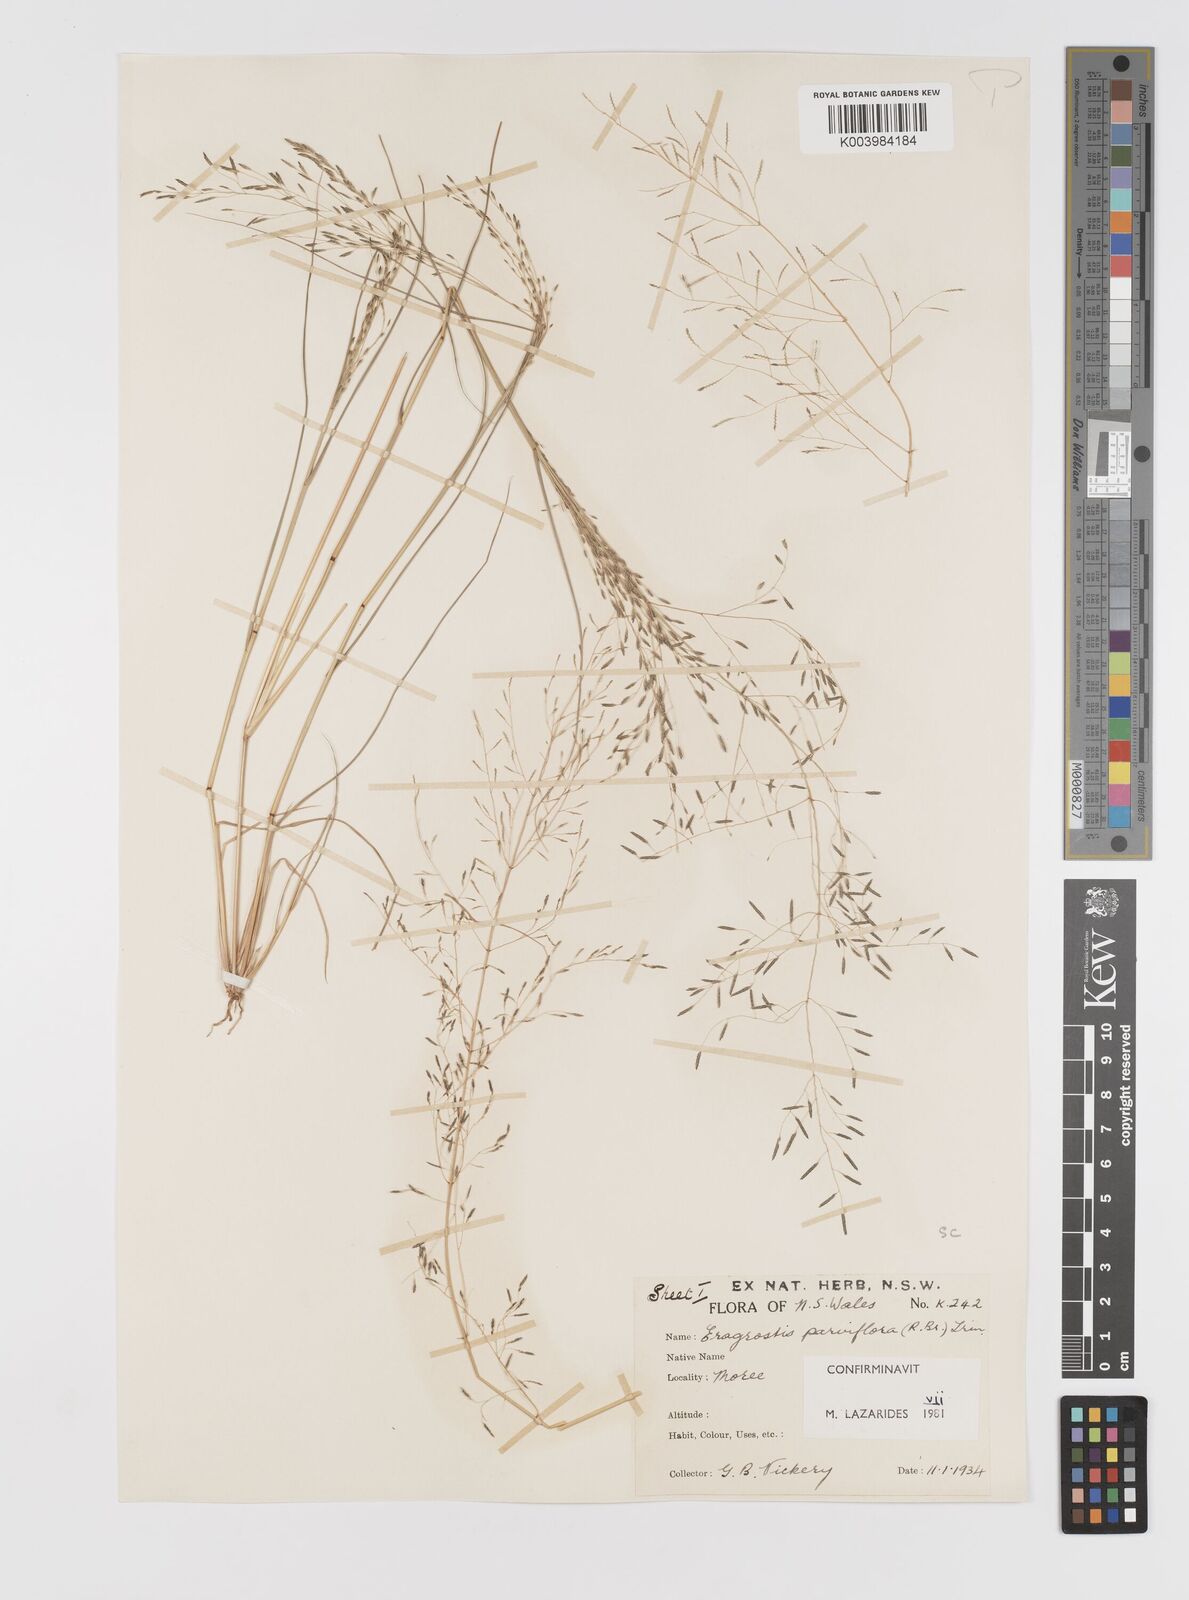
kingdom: Plantae
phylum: Tracheophyta
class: Liliopsida
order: Poales
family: Poaceae
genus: Eragrostis
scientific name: Eragrostis parviflora
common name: Weeping love-grass
